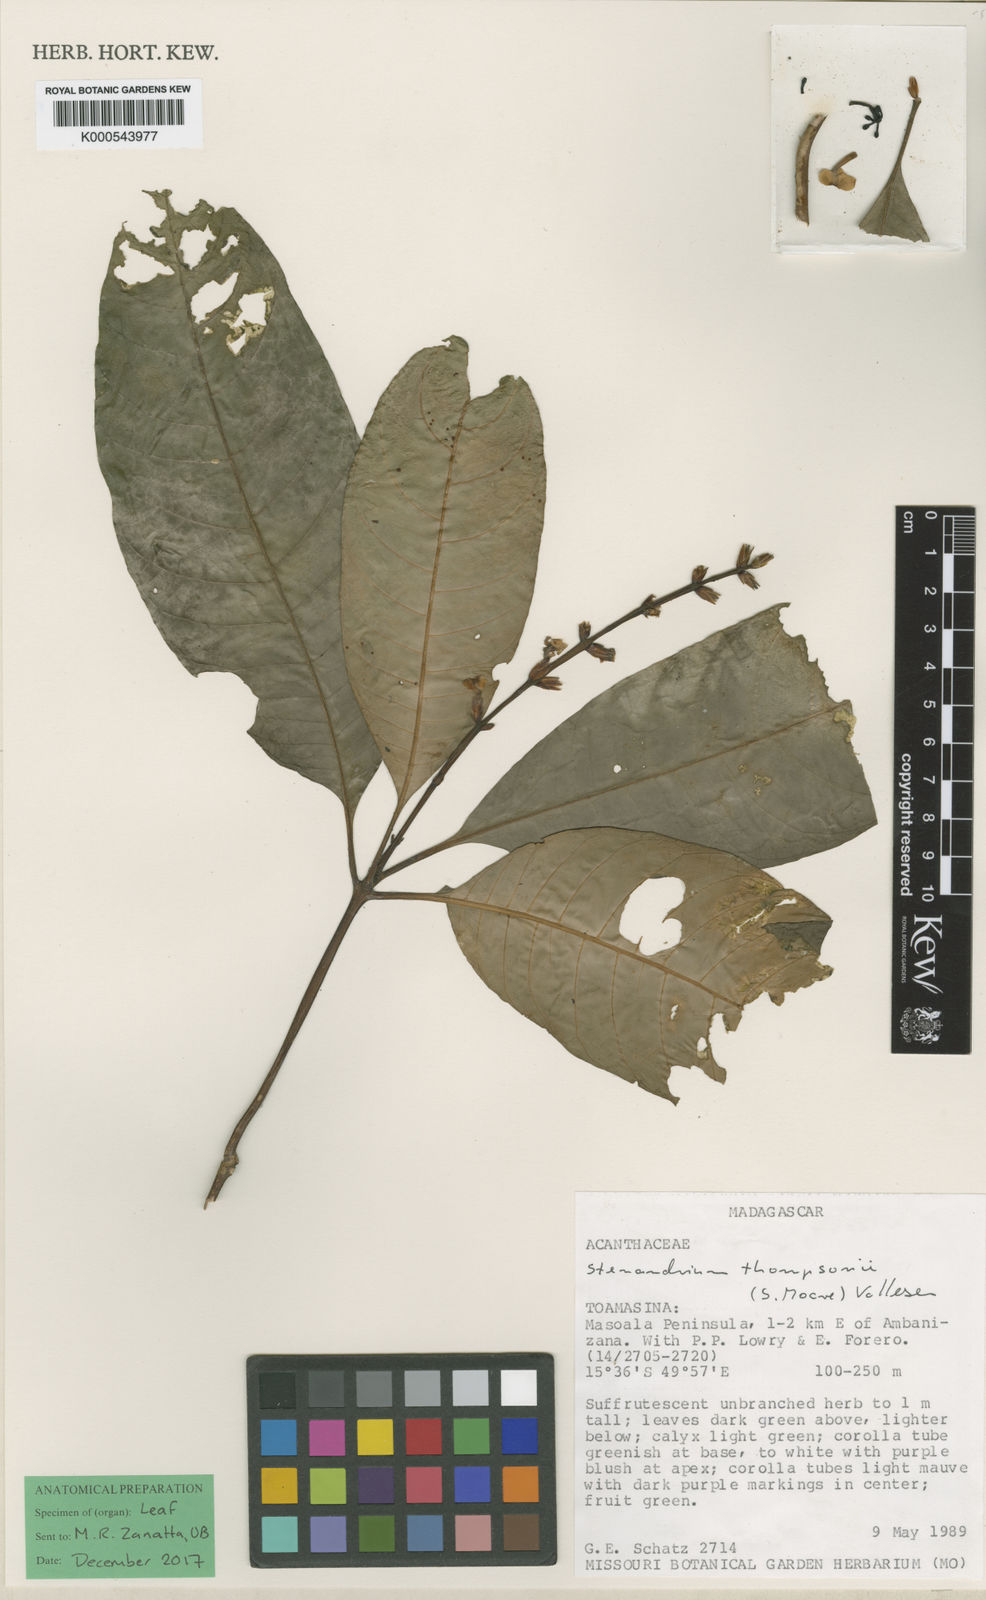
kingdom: Plantae
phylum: Tracheophyta
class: Magnoliopsida
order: Lamiales
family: Acanthaceae
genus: Stenandriopsis
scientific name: Stenandriopsis thompsonii
